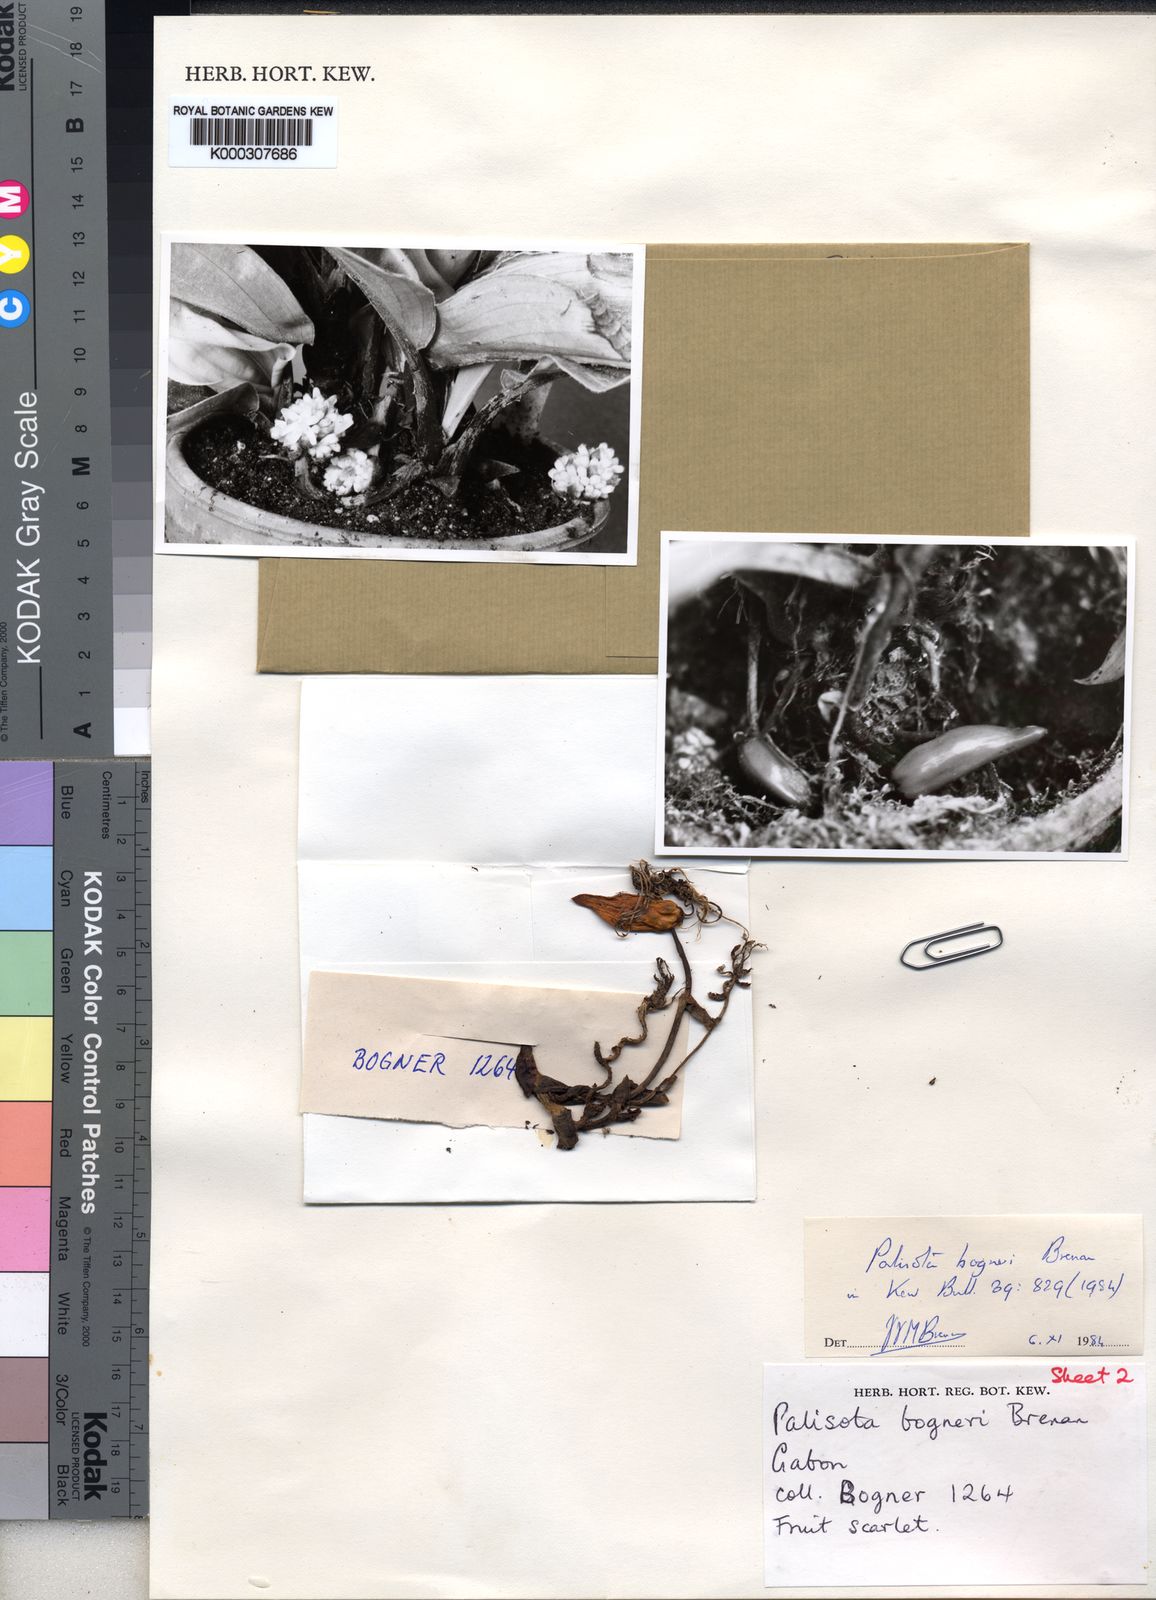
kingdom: Plantae
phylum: Tracheophyta
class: Liliopsida
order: Commelinales
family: Commelinaceae
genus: Palisota
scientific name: Palisota bogneri
